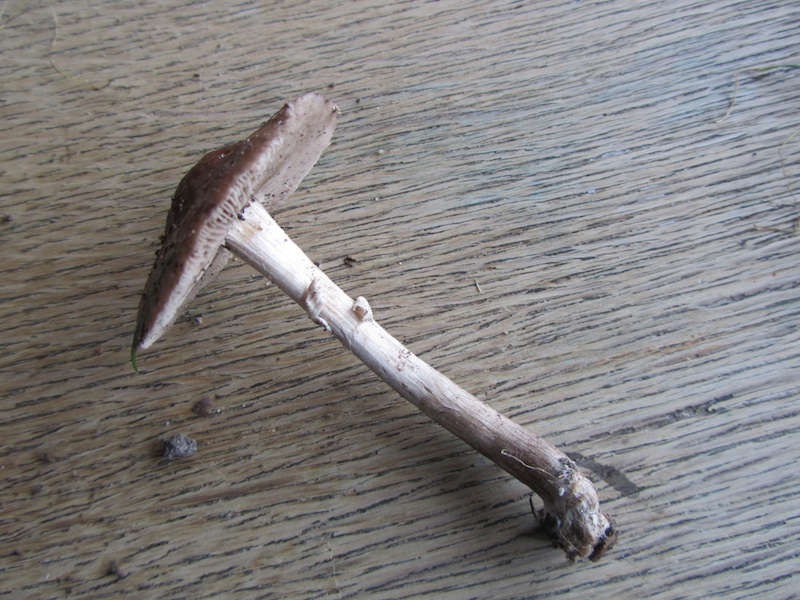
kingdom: Fungi
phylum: Basidiomycota
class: Agaricomycetes
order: Agaricales
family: Tubariaceae
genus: Cyclocybe
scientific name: Cyclocybe erebia
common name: mørk agerhat
